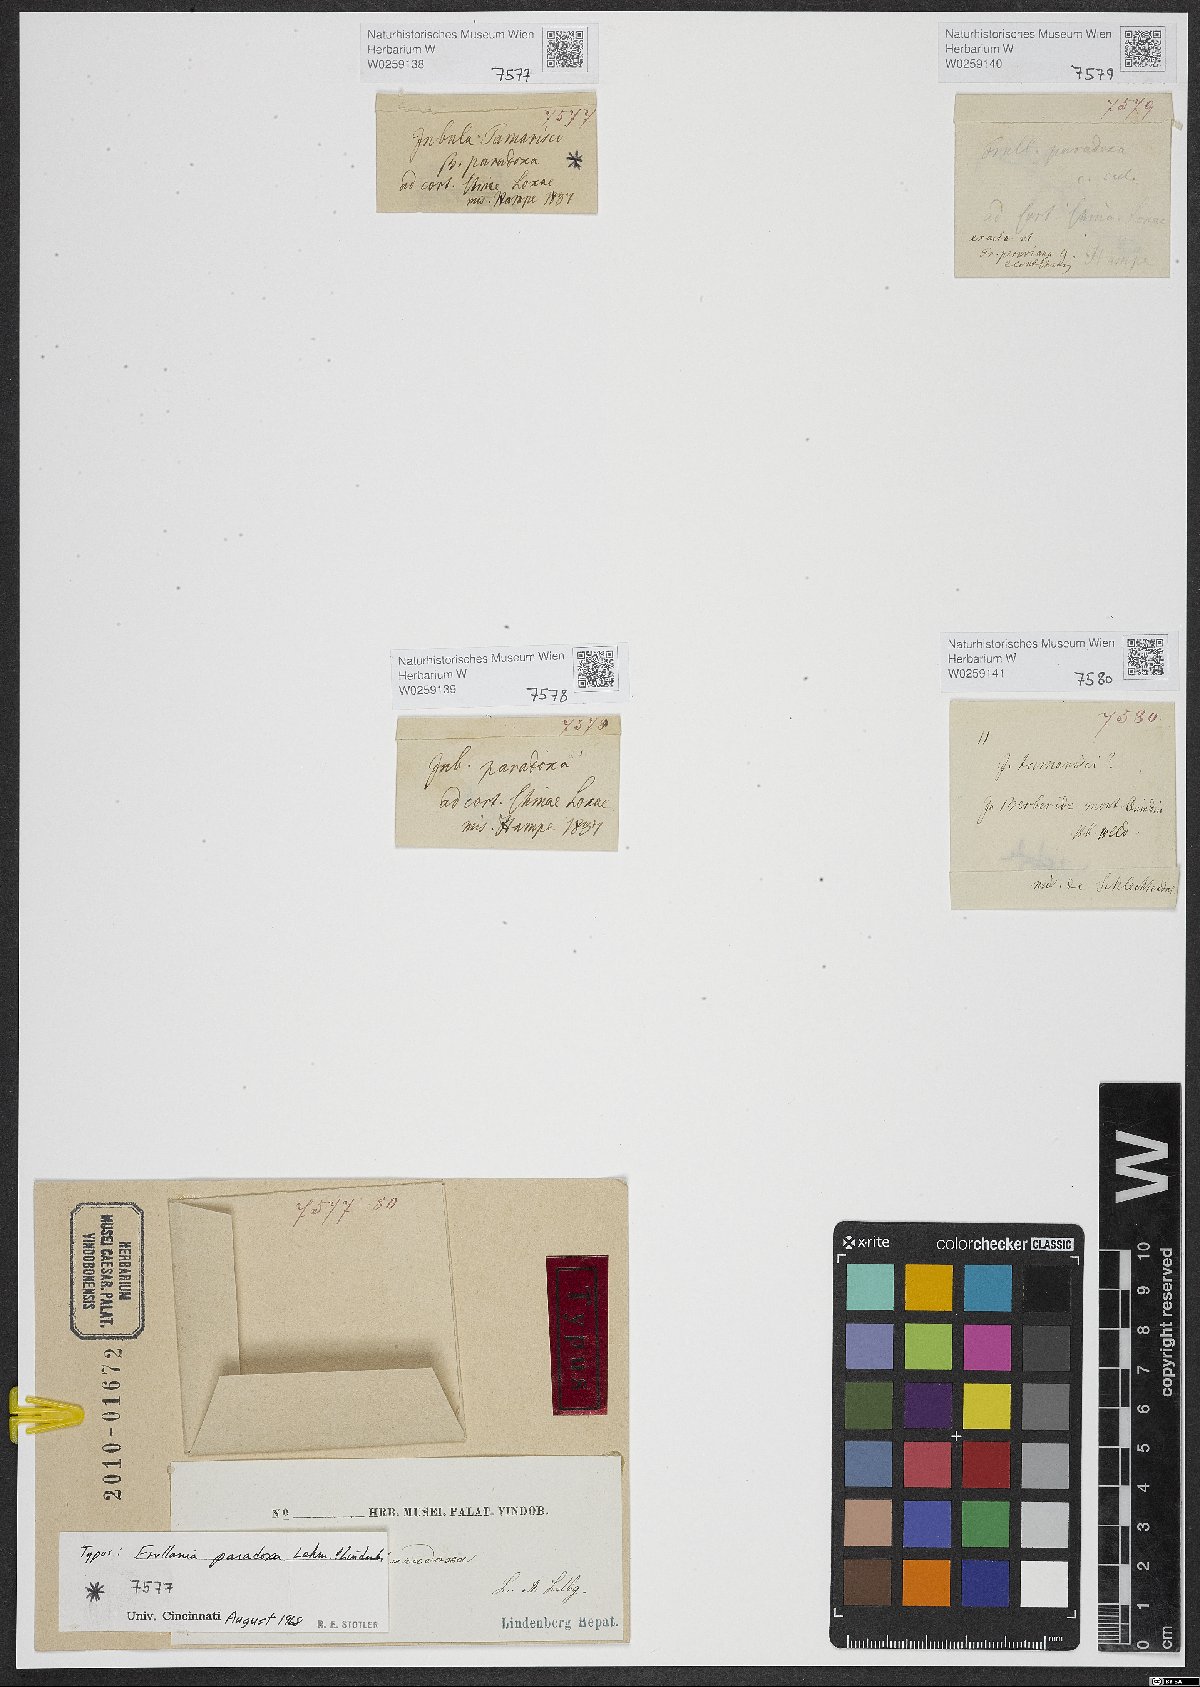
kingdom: Plantae
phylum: Marchantiophyta
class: Jungermanniopsida
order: Porellales
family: Frullaniaceae
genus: Frullania
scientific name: Frullania paradoxa
